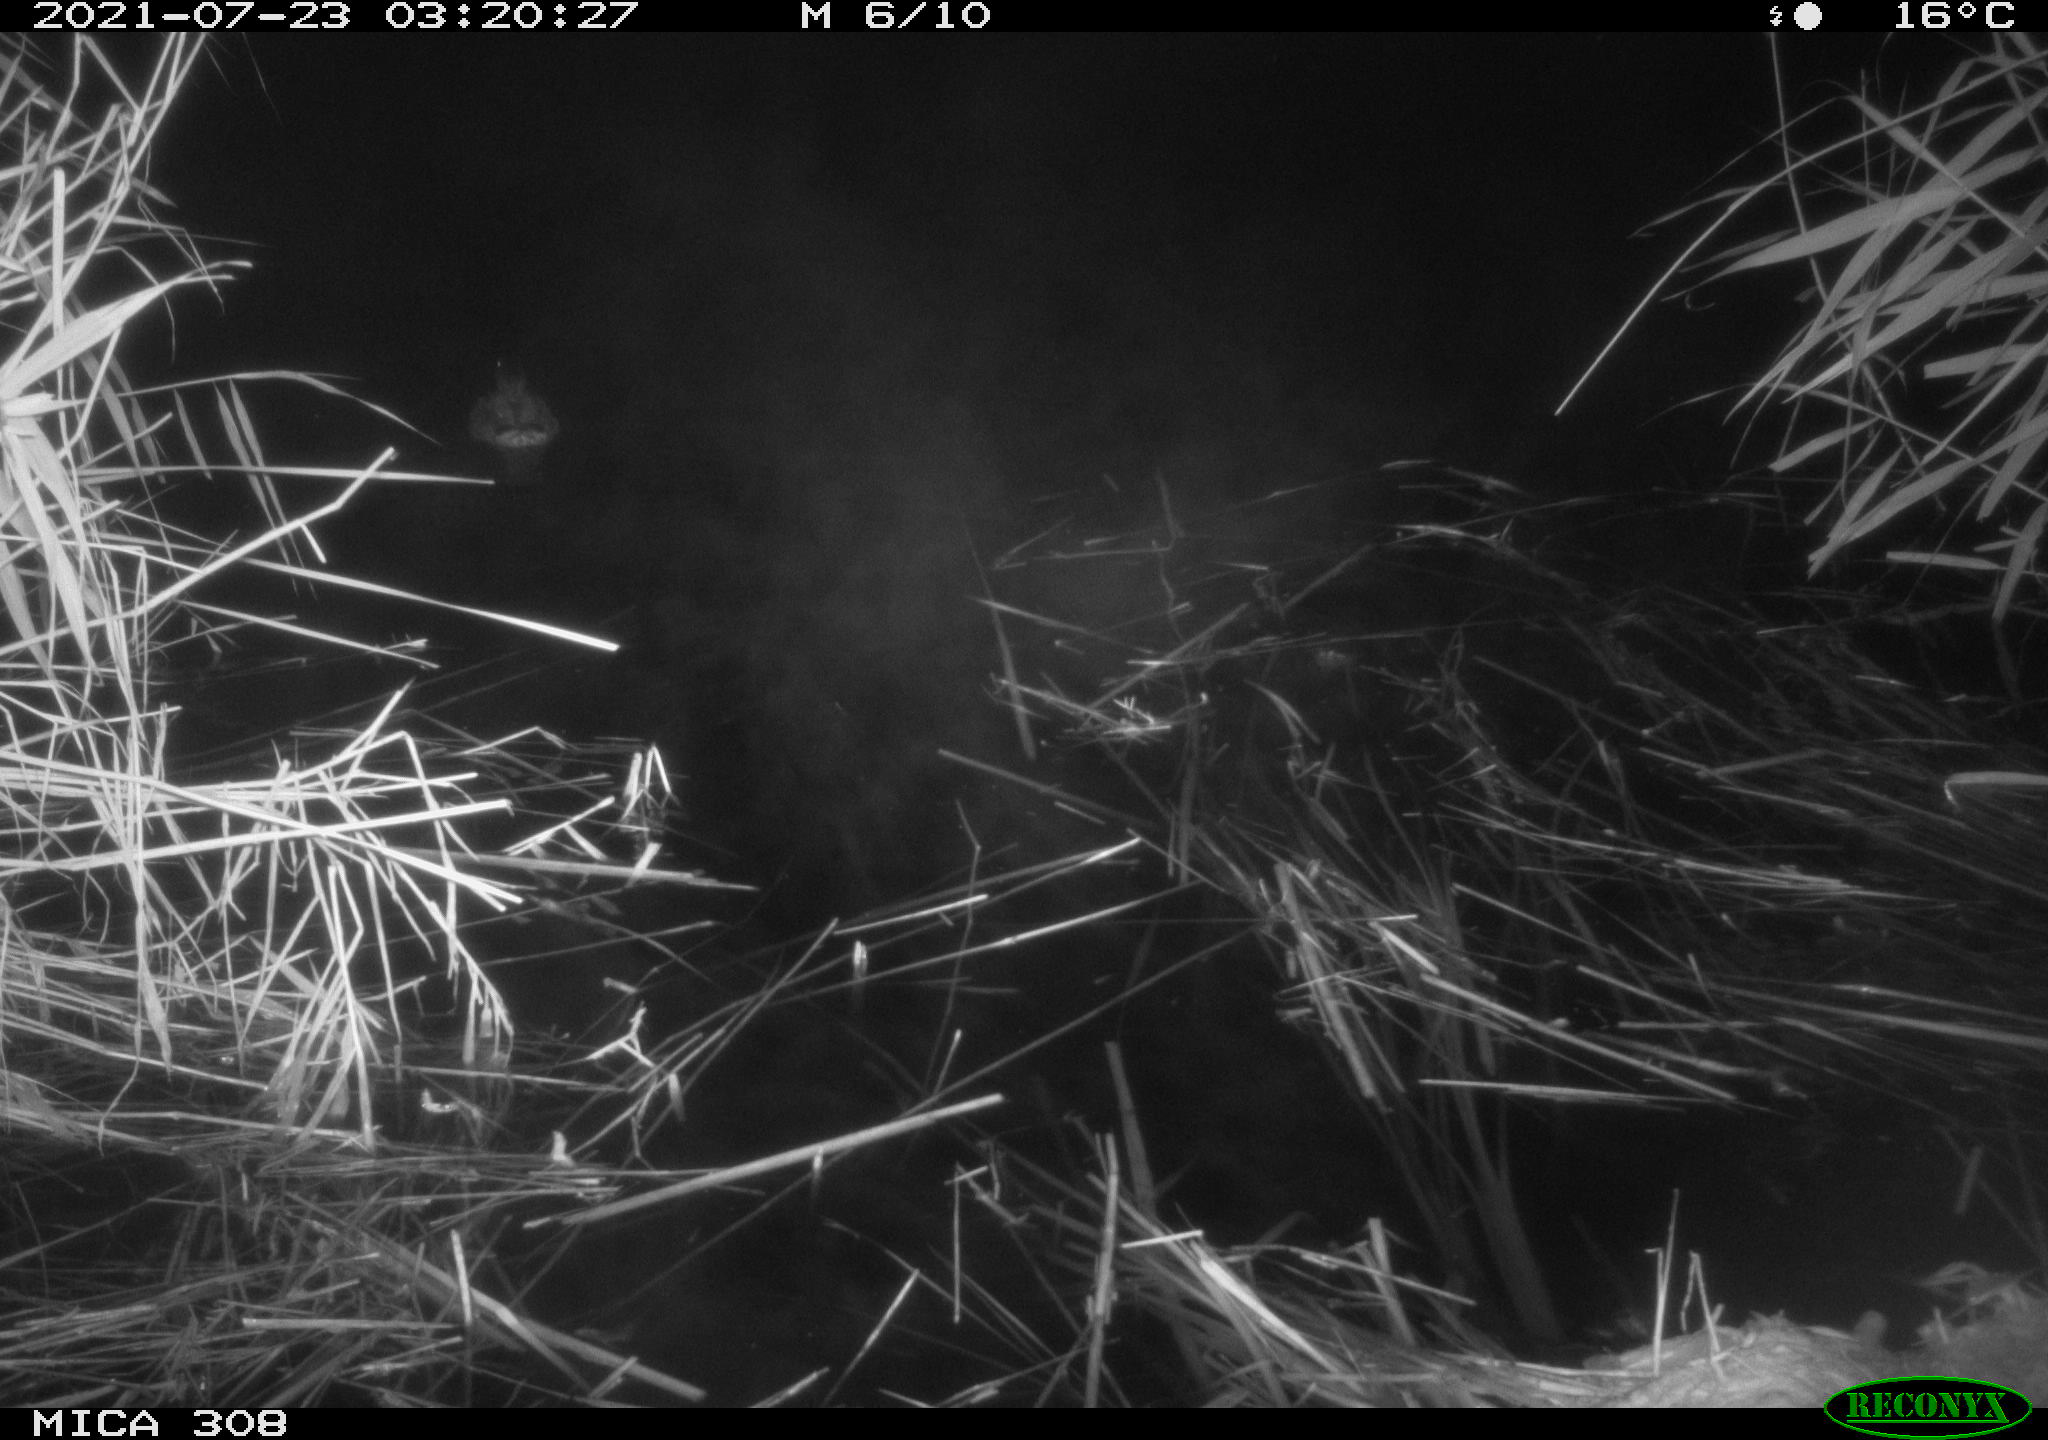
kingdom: Animalia
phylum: Chordata
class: Aves
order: Anseriformes
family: Anatidae
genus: Anas
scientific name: Anas platyrhynchos
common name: Mallard
